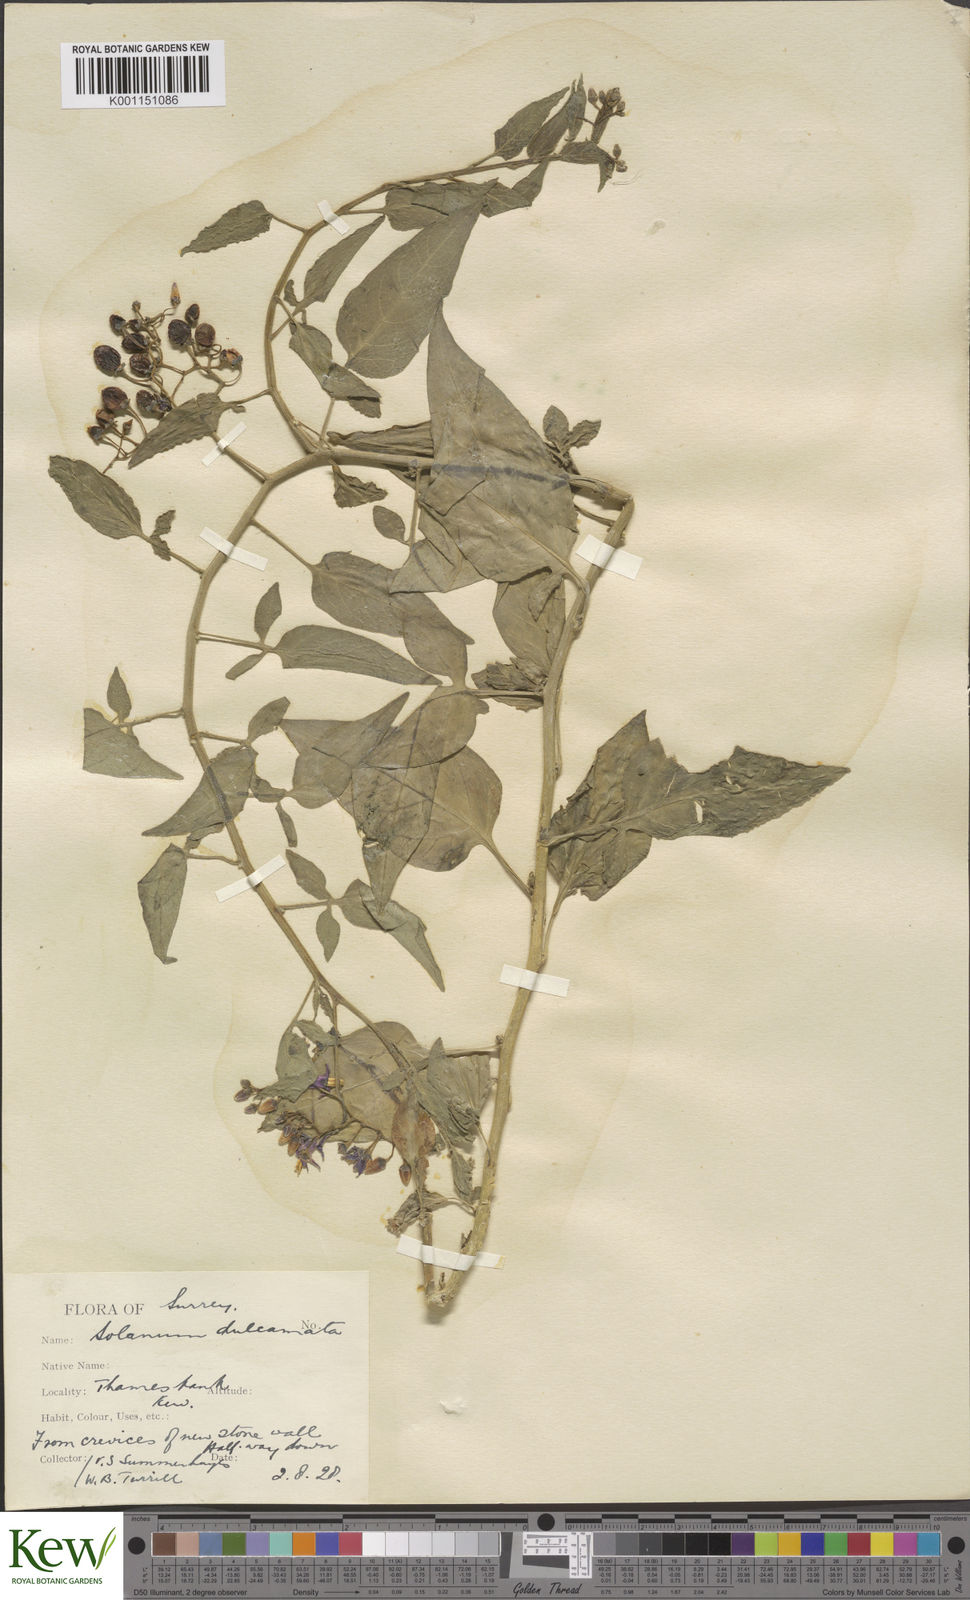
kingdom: Plantae
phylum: Tracheophyta
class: Magnoliopsida
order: Solanales
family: Solanaceae
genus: Solanum
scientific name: Solanum dulcamara
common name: Climbing nightshade
